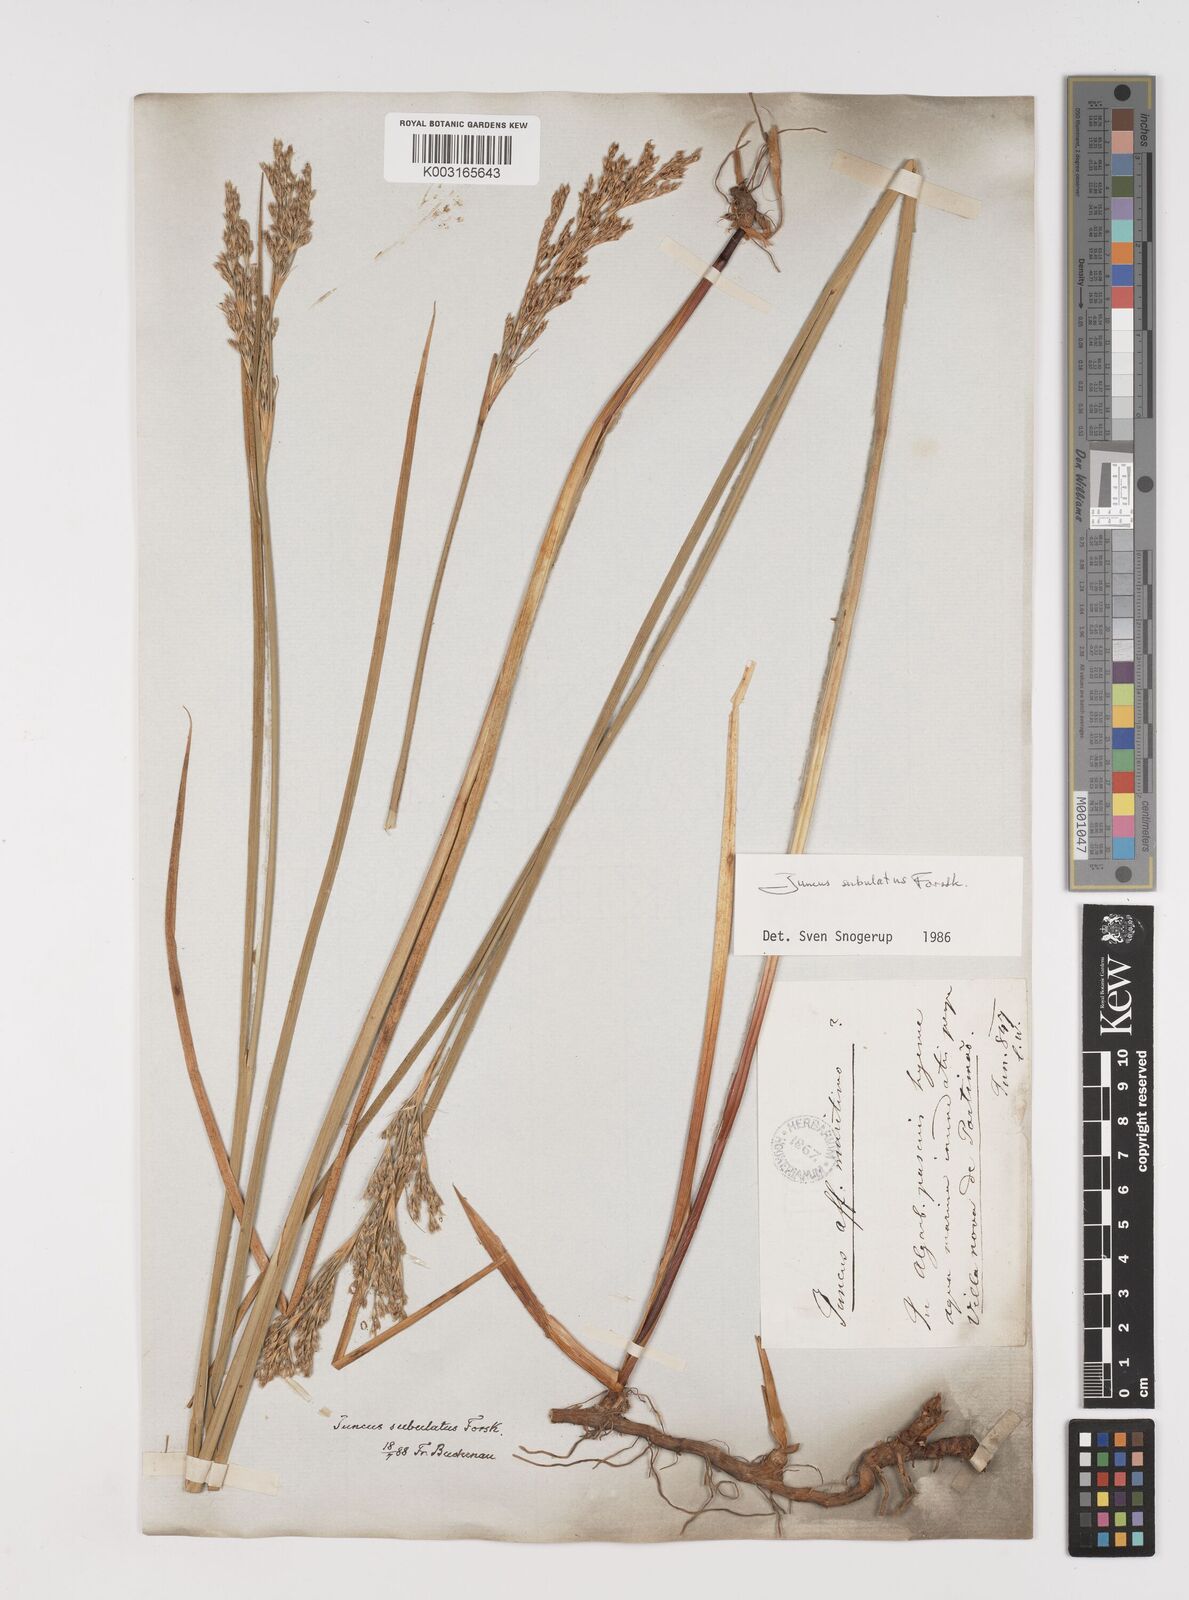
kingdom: Plantae
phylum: Tracheophyta
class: Liliopsida
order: Poales
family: Juncaceae
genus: Juncus
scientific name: Juncus subulatus
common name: Somerset rush
